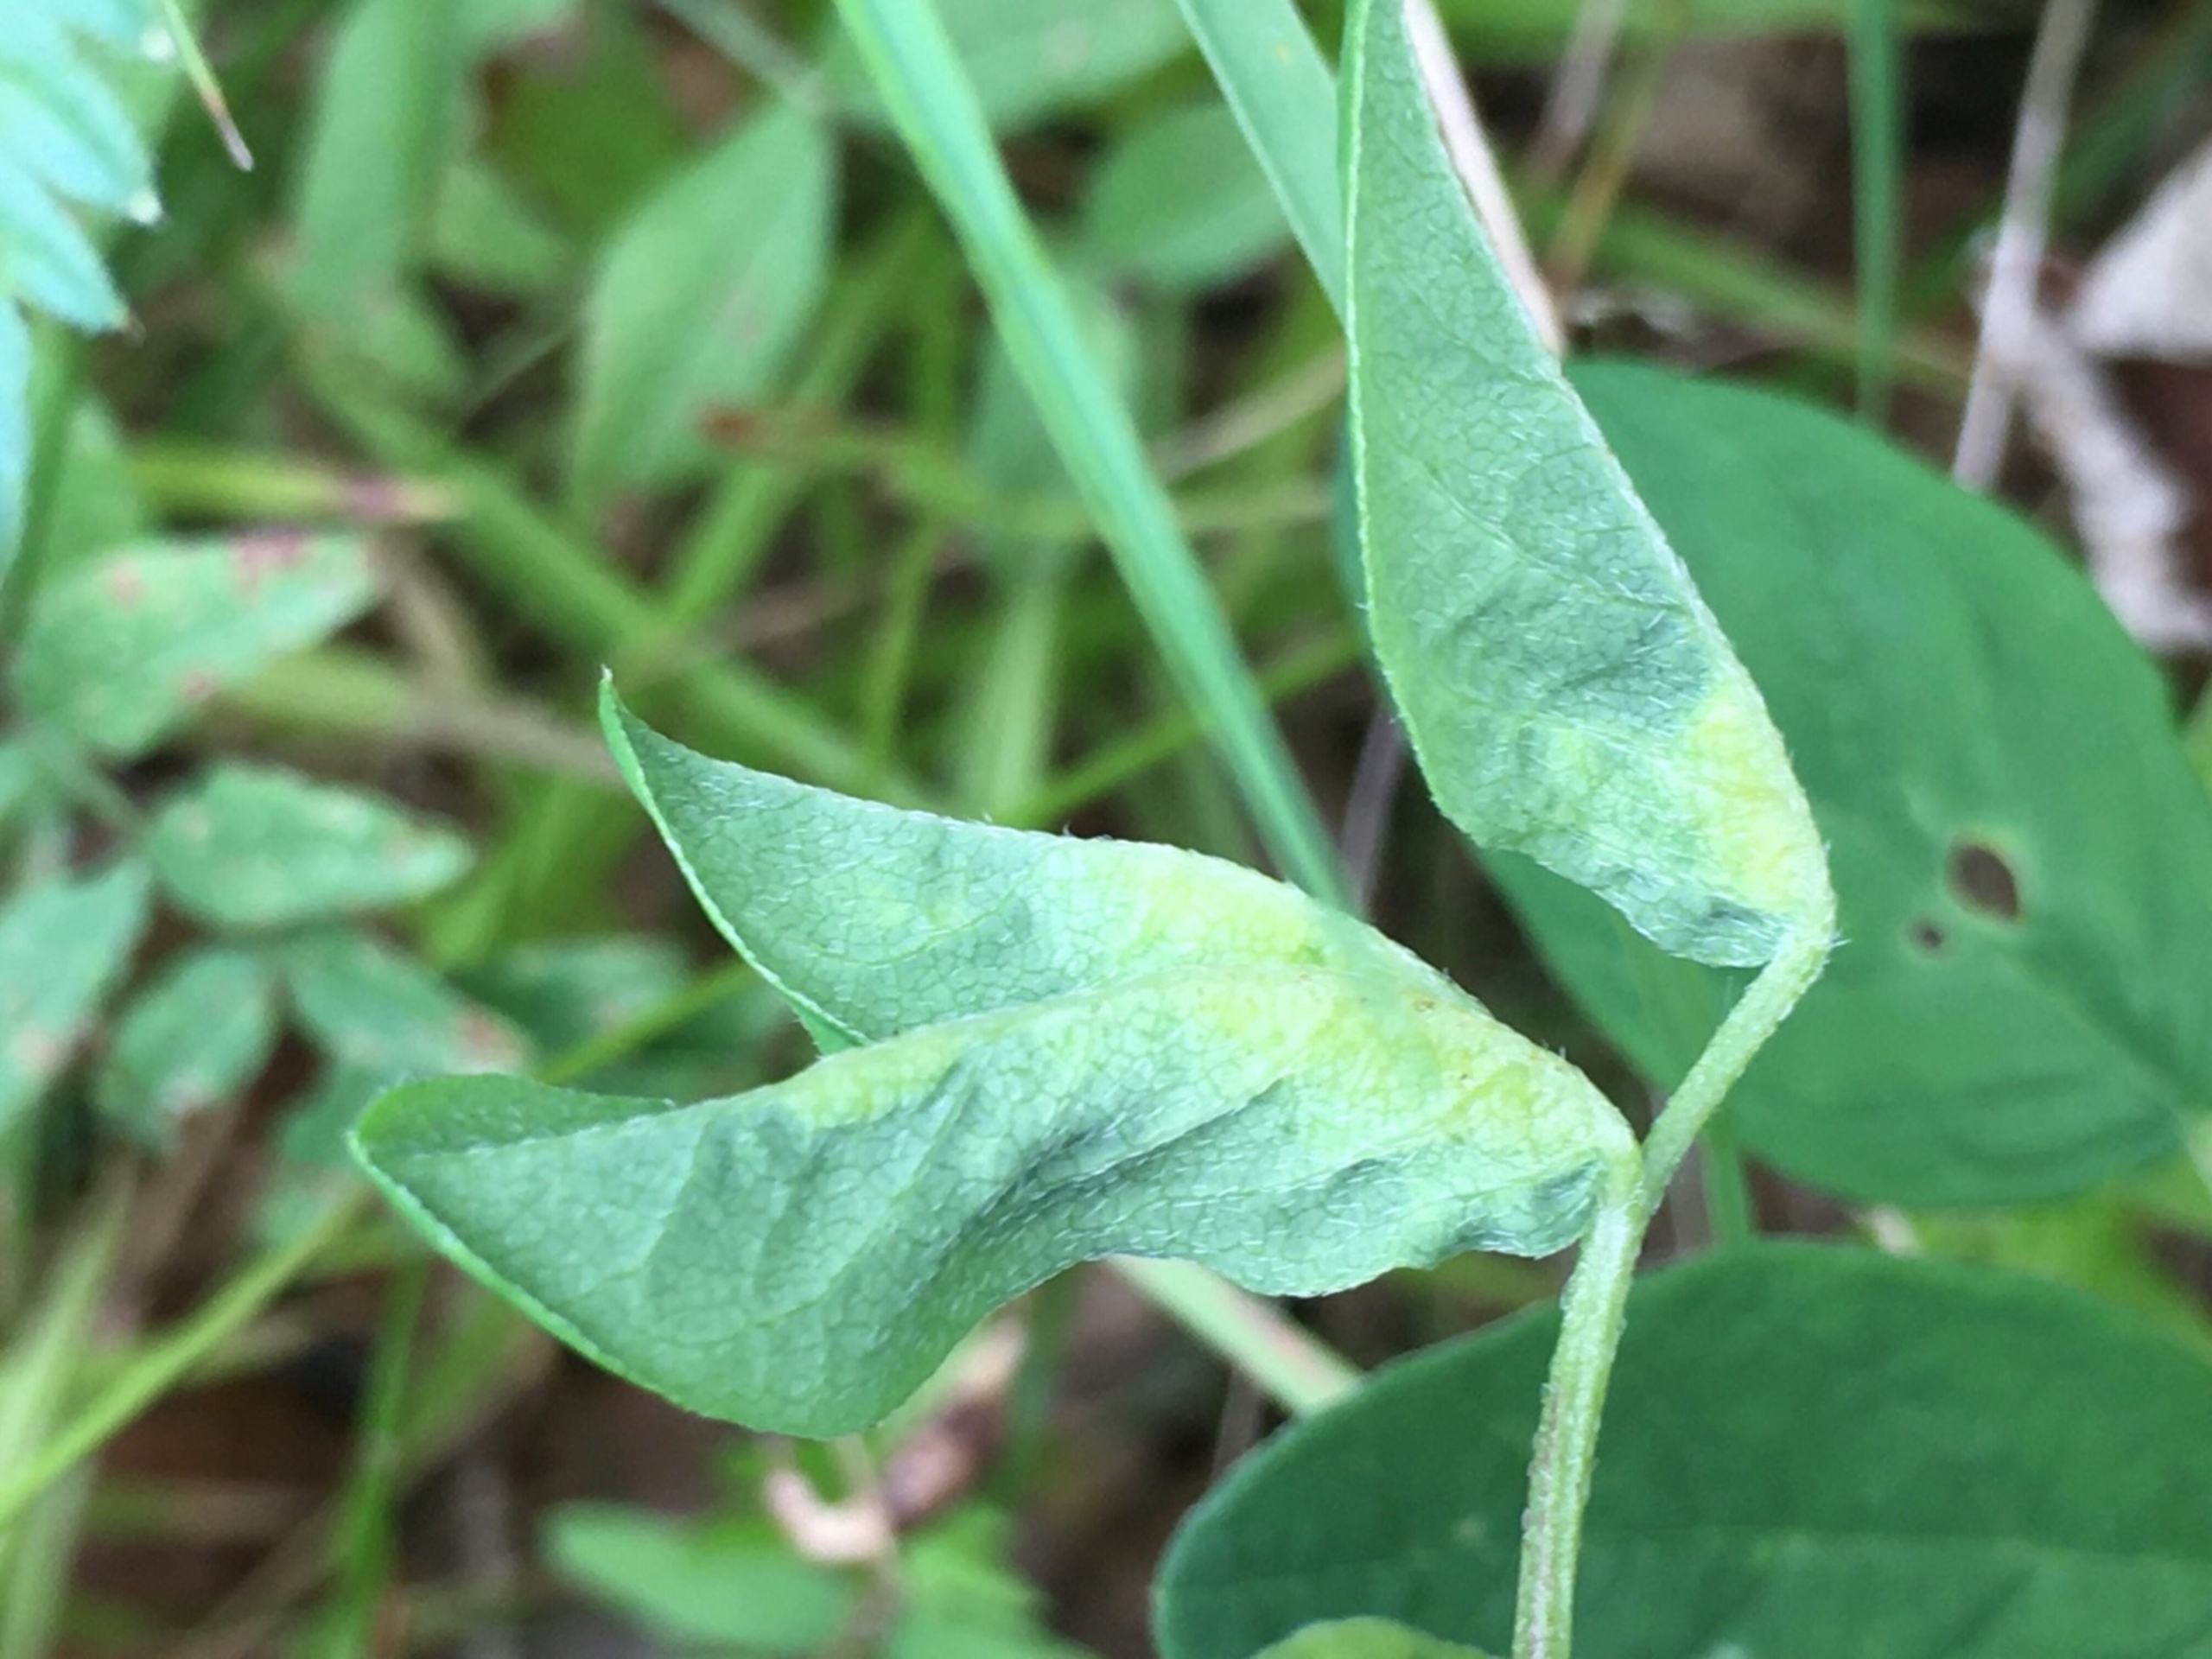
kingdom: Animalia
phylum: Arthropoda
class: Insecta
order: Diptera
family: Cecidomyiidae
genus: Dasineura
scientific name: Dasineura glyciphyli
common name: Astragelbladgalmyg
